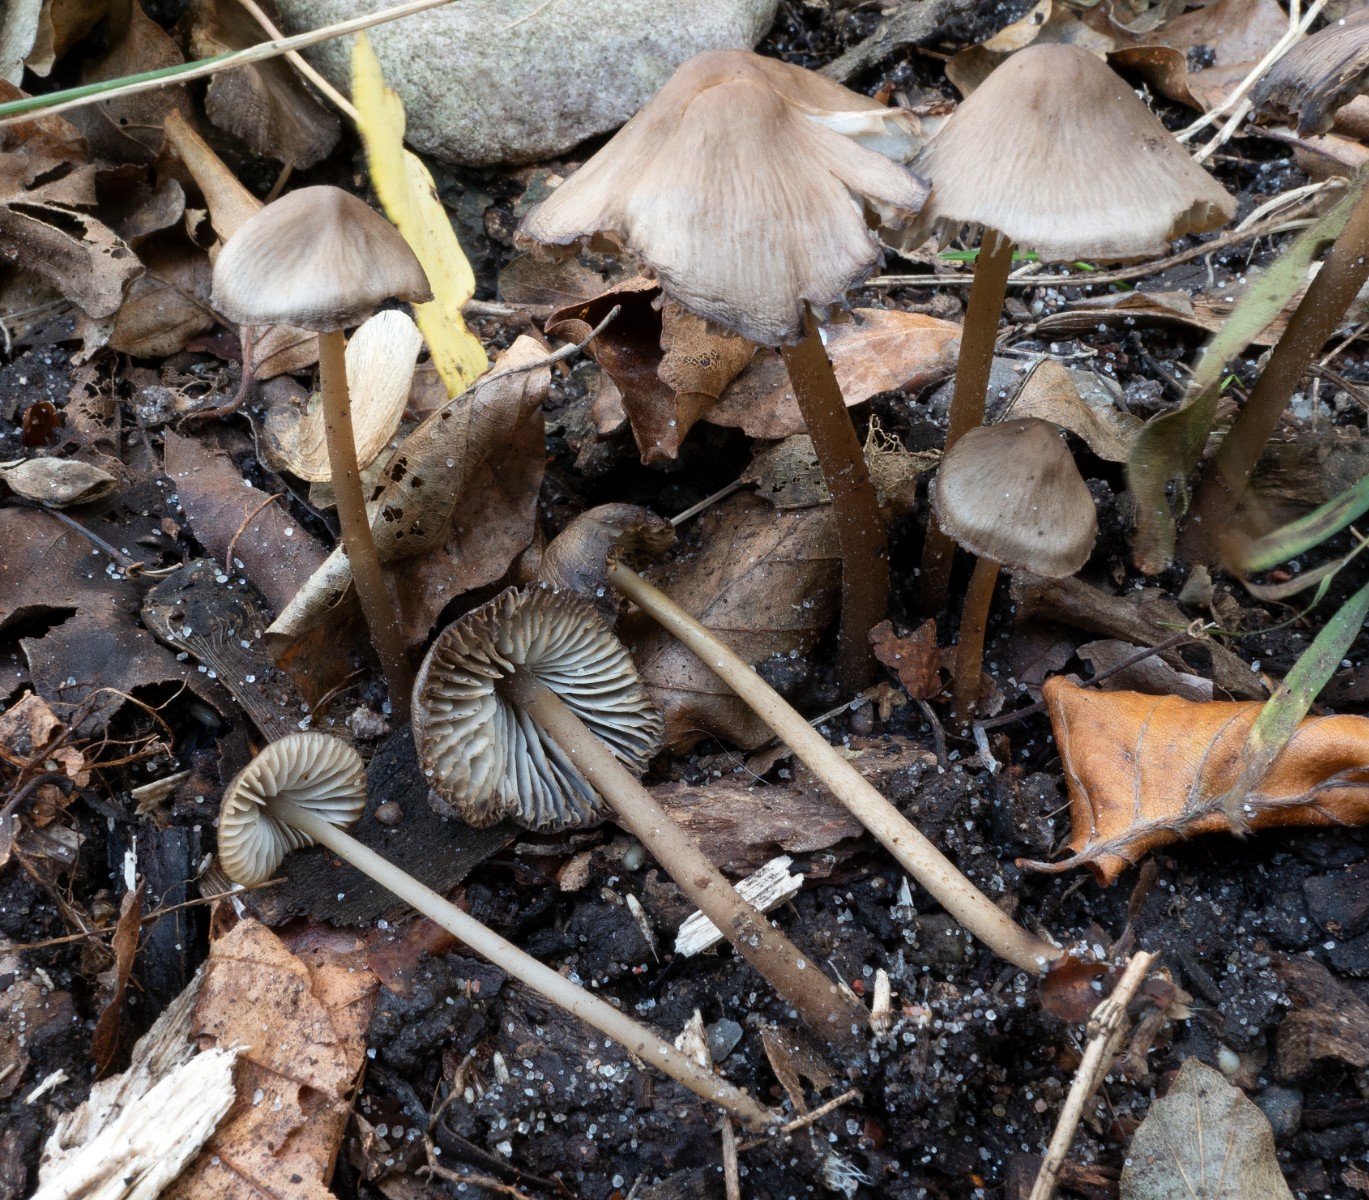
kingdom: Fungi
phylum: Basidiomycota
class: Agaricomycetes
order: Agaricales
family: Mycenaceae
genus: Mycopan
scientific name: Mycopan scabripes
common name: mørk fnugfod
